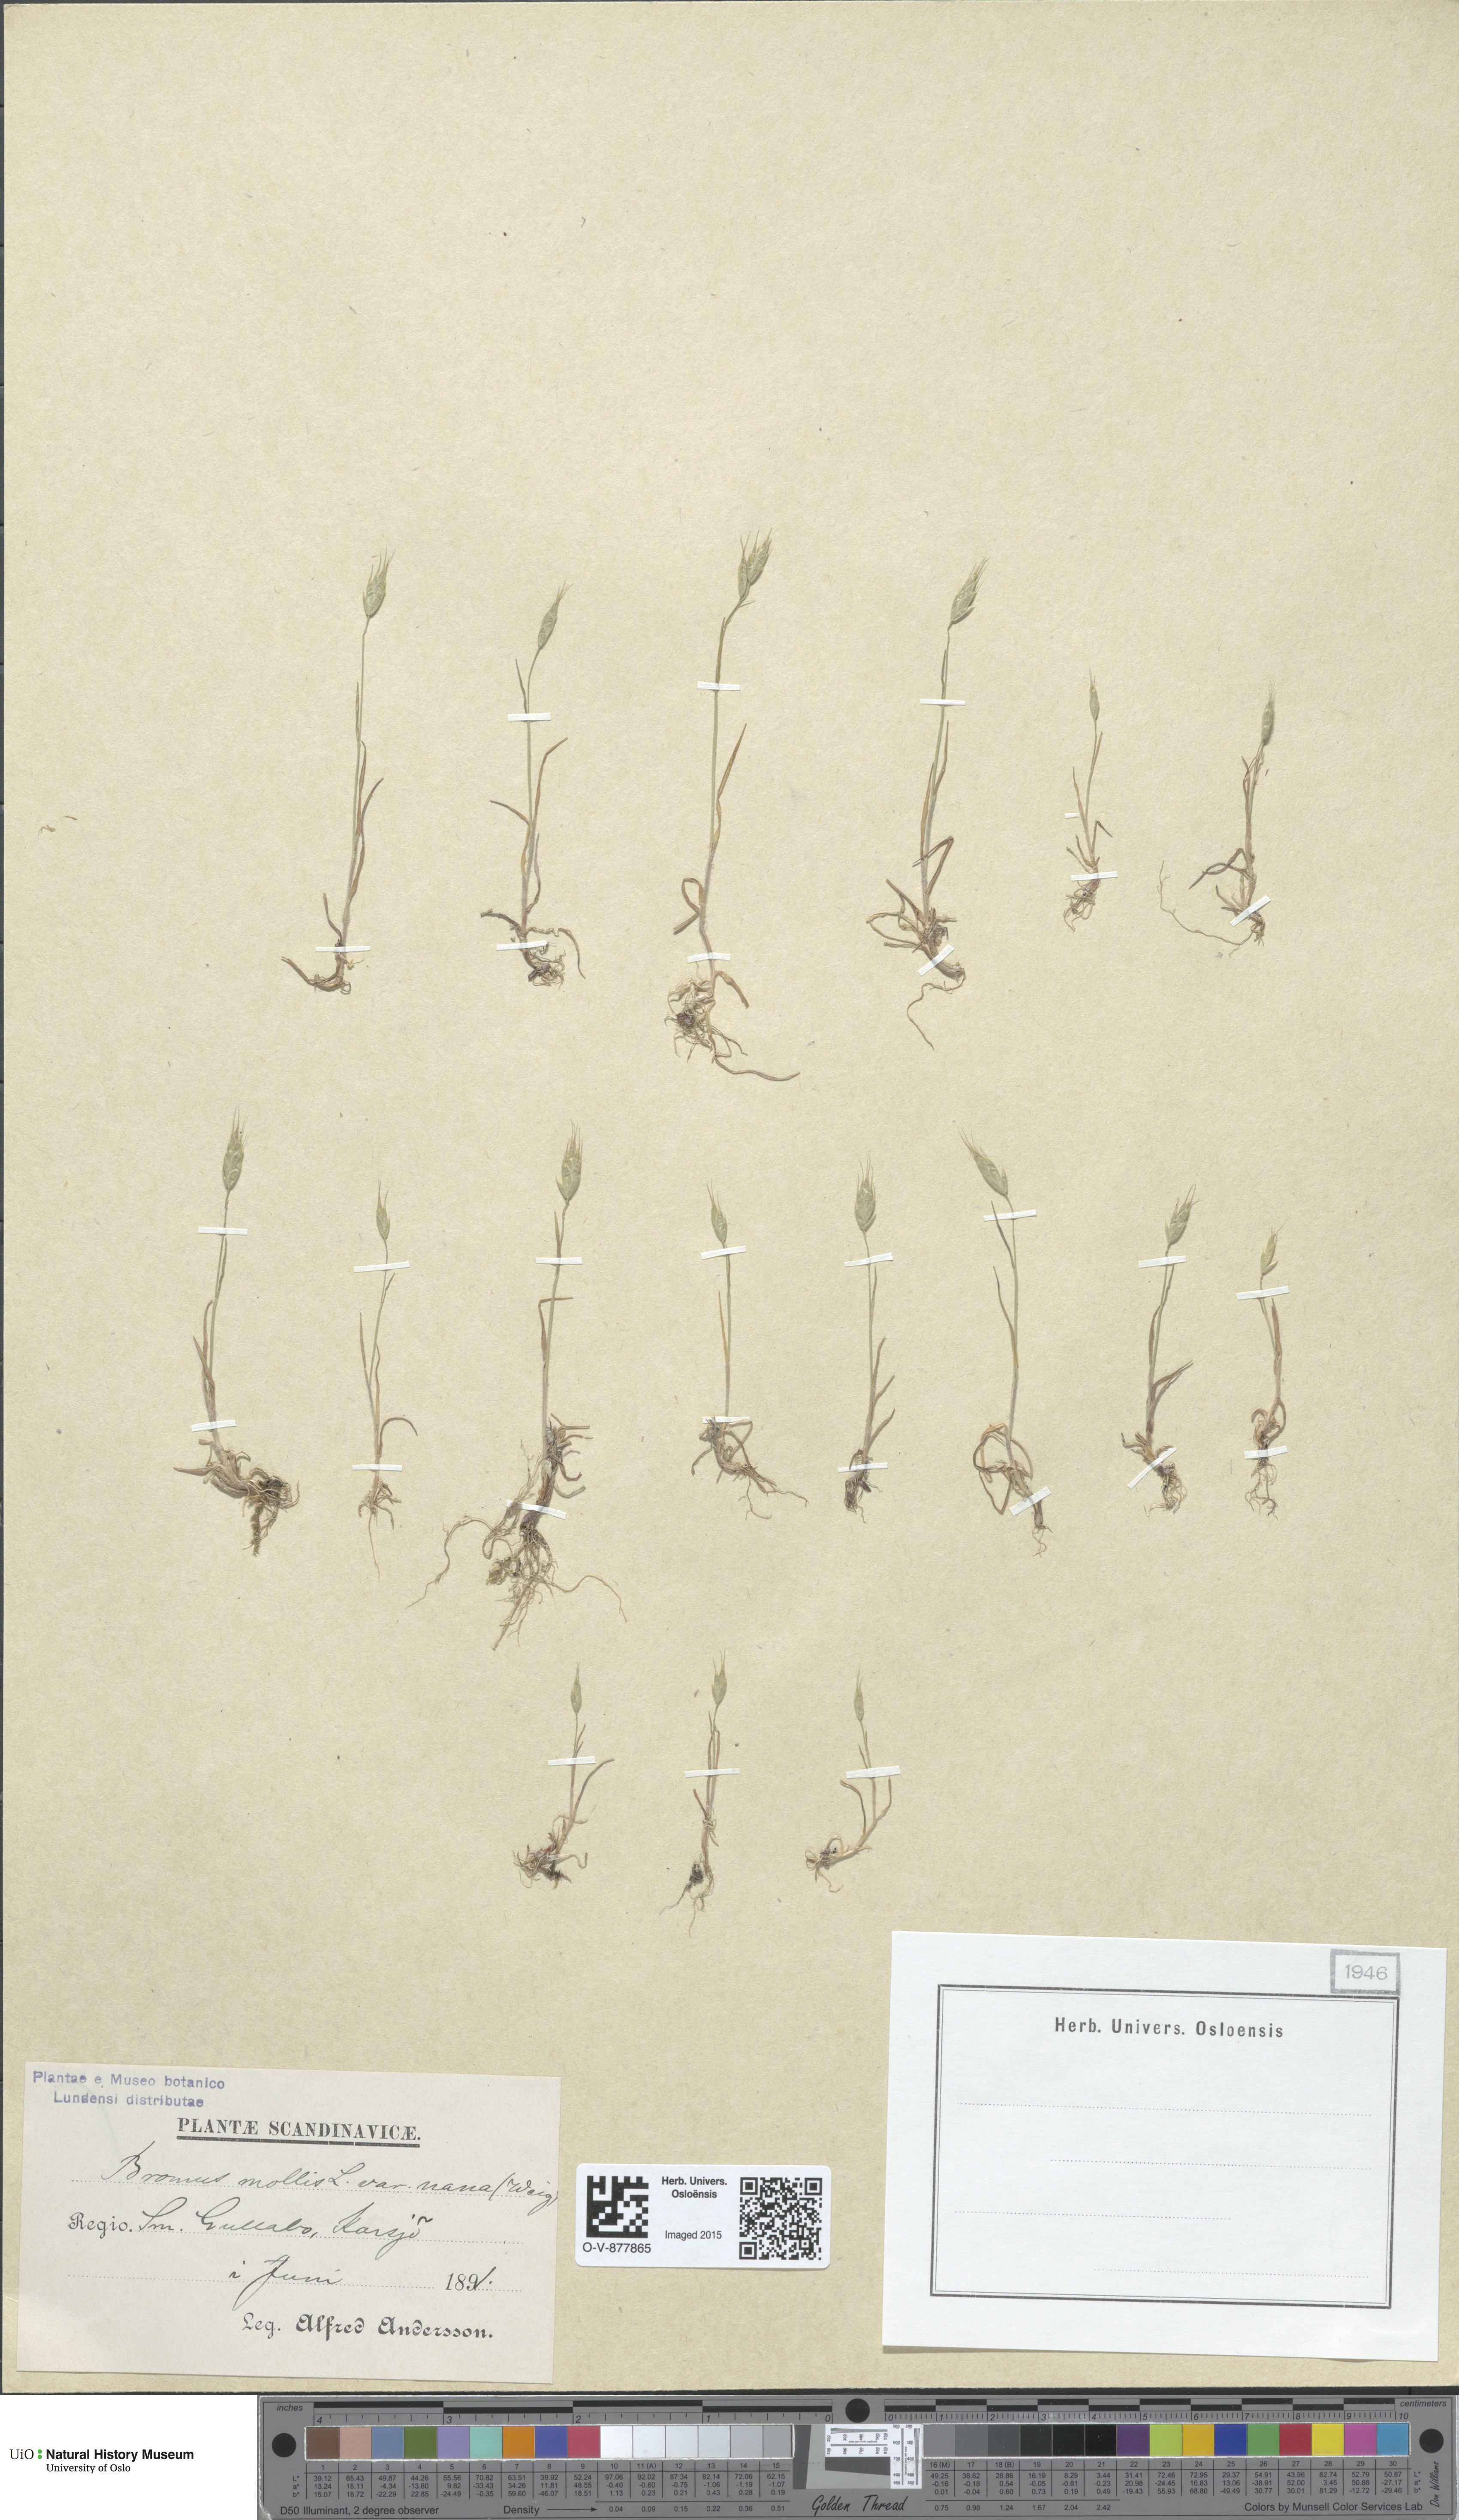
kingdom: Plantae
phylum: Tracheophyta
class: Liliopsida
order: Poales
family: Poaceae
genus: Bromus
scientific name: Bromus hordeaceus
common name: Soft brome
